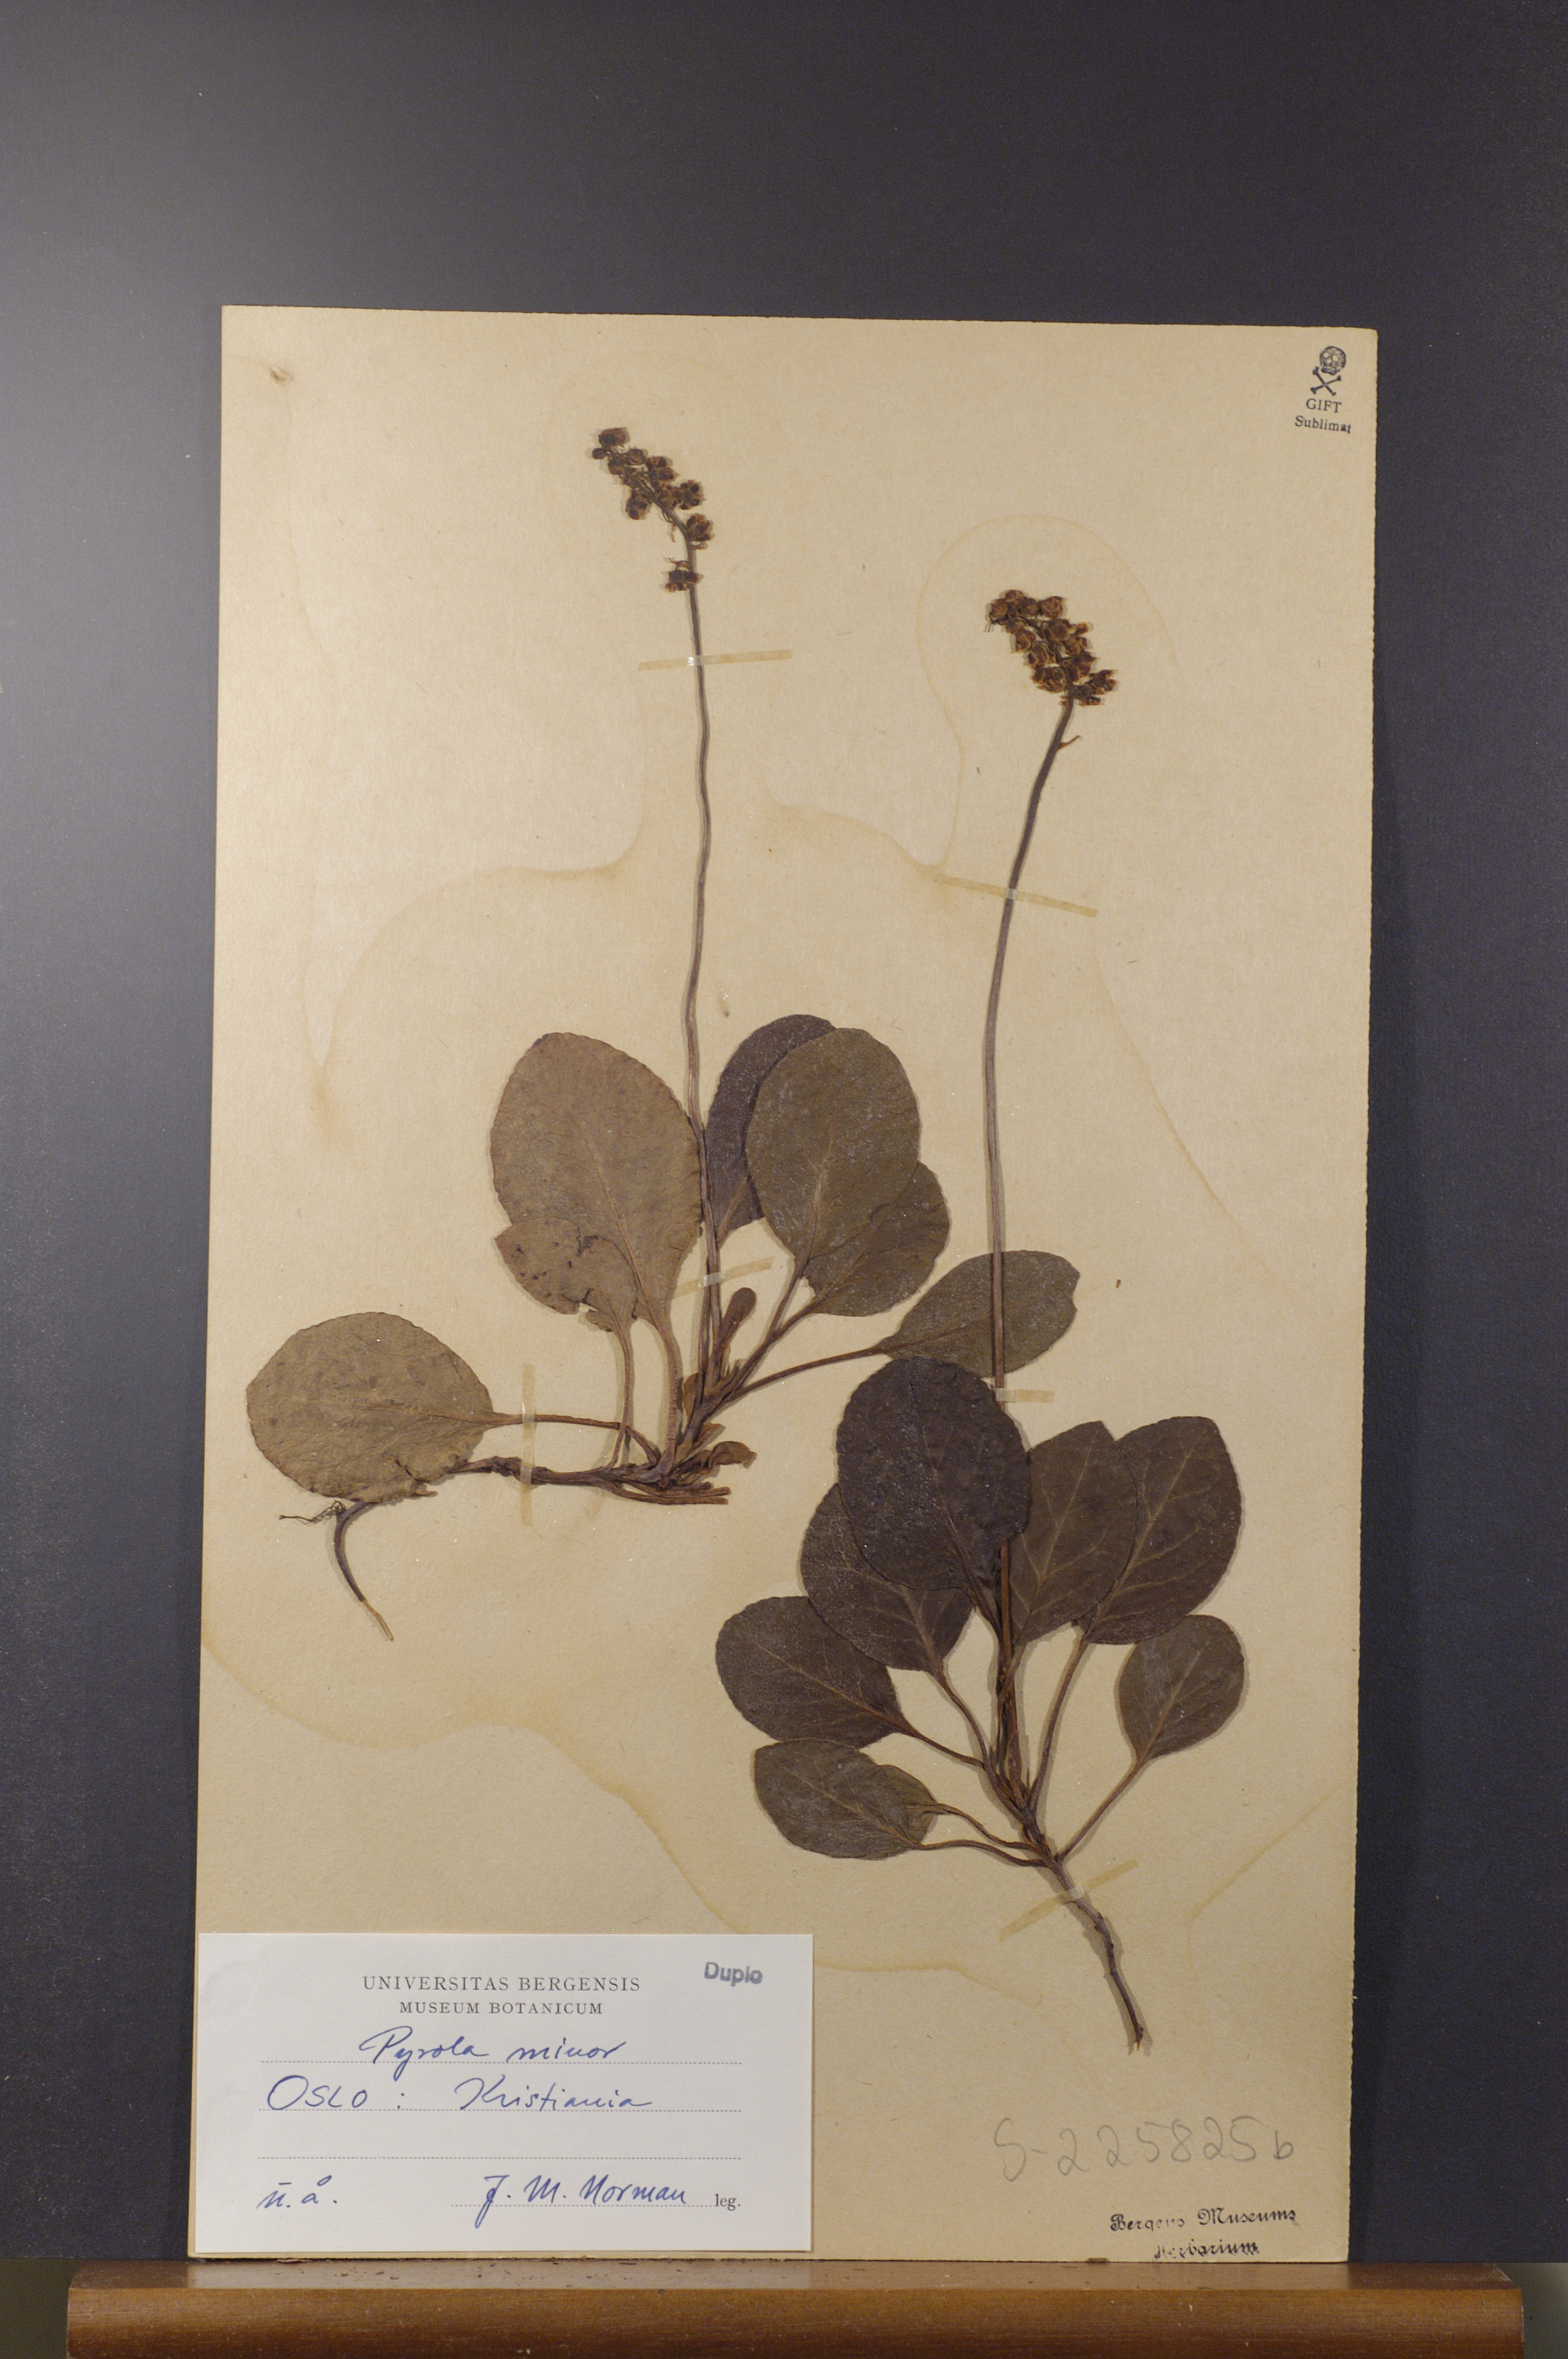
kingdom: Plantae
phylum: Tracheophyta
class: Magnoliopsida
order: Ericales
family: Ericaceae
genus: Pyrola
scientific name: Pyrola minor
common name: Common wintergreen
